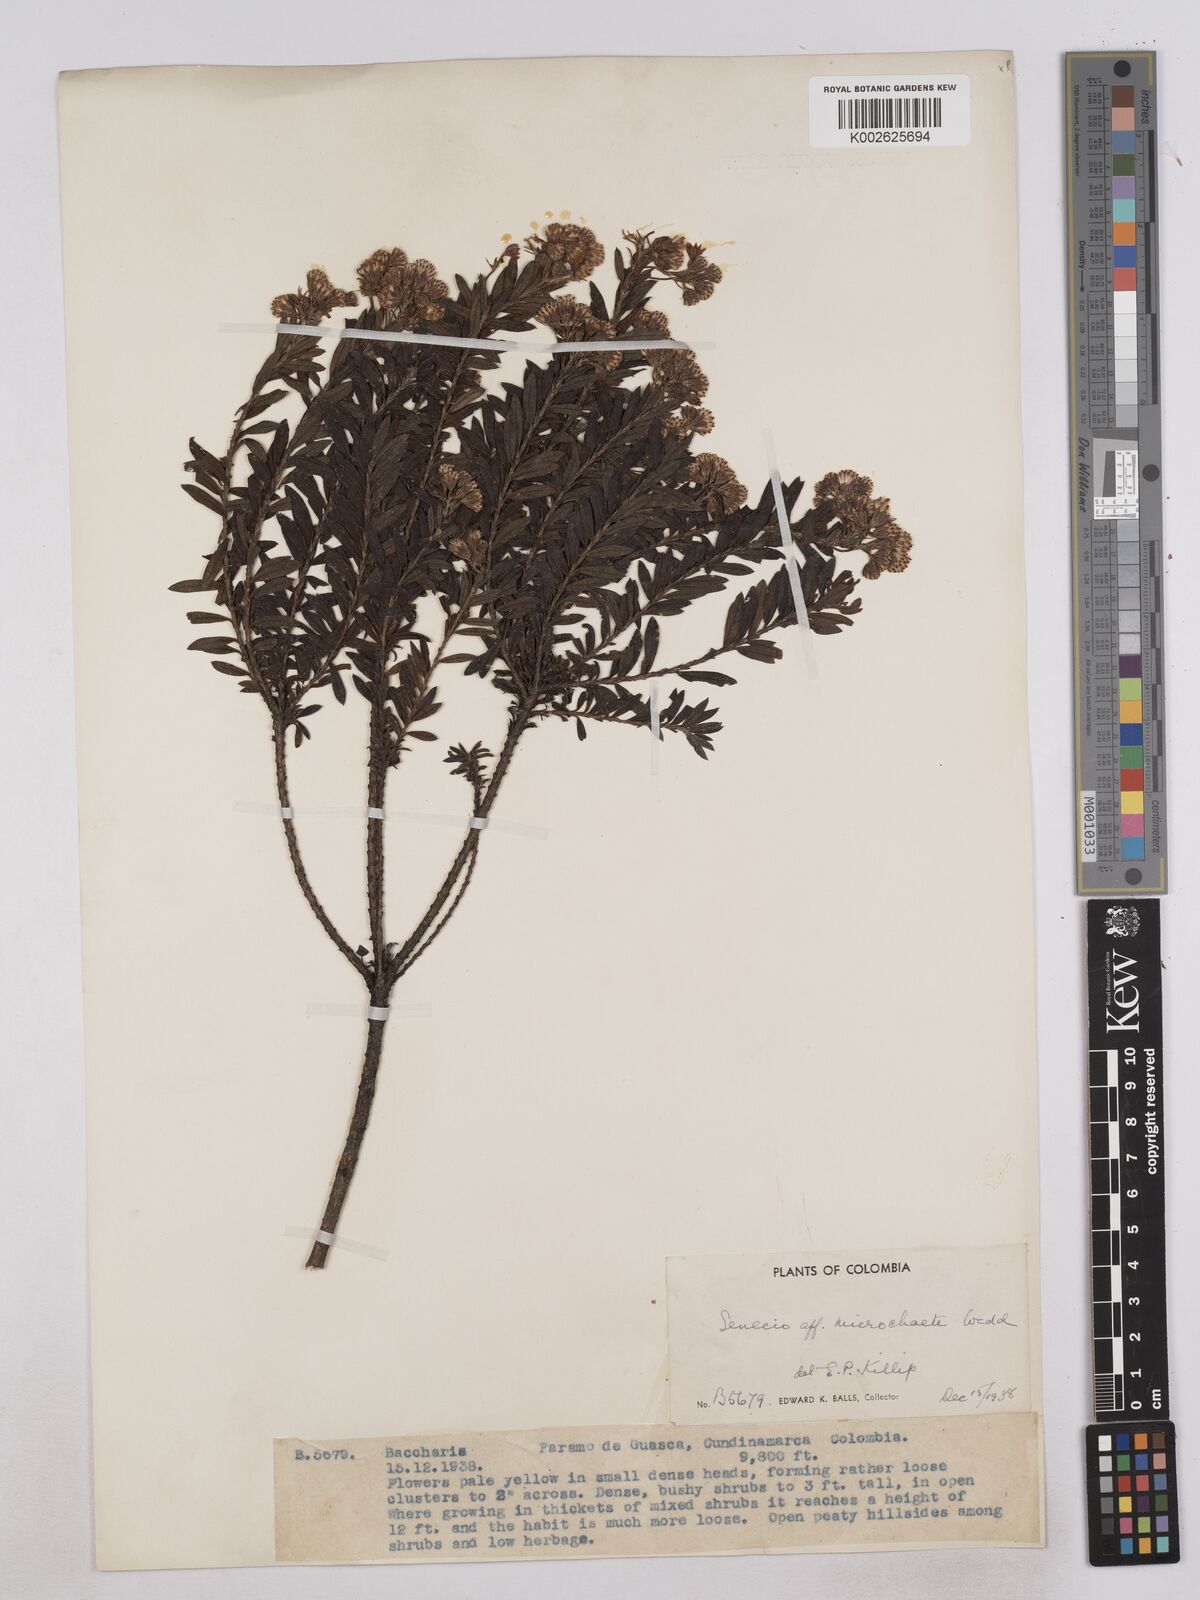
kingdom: Plantae
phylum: Tracheophyta
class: Magnoliopsida
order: Asterales
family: Asteraceae
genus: Monticalia
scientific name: Monticalia corymbosa
